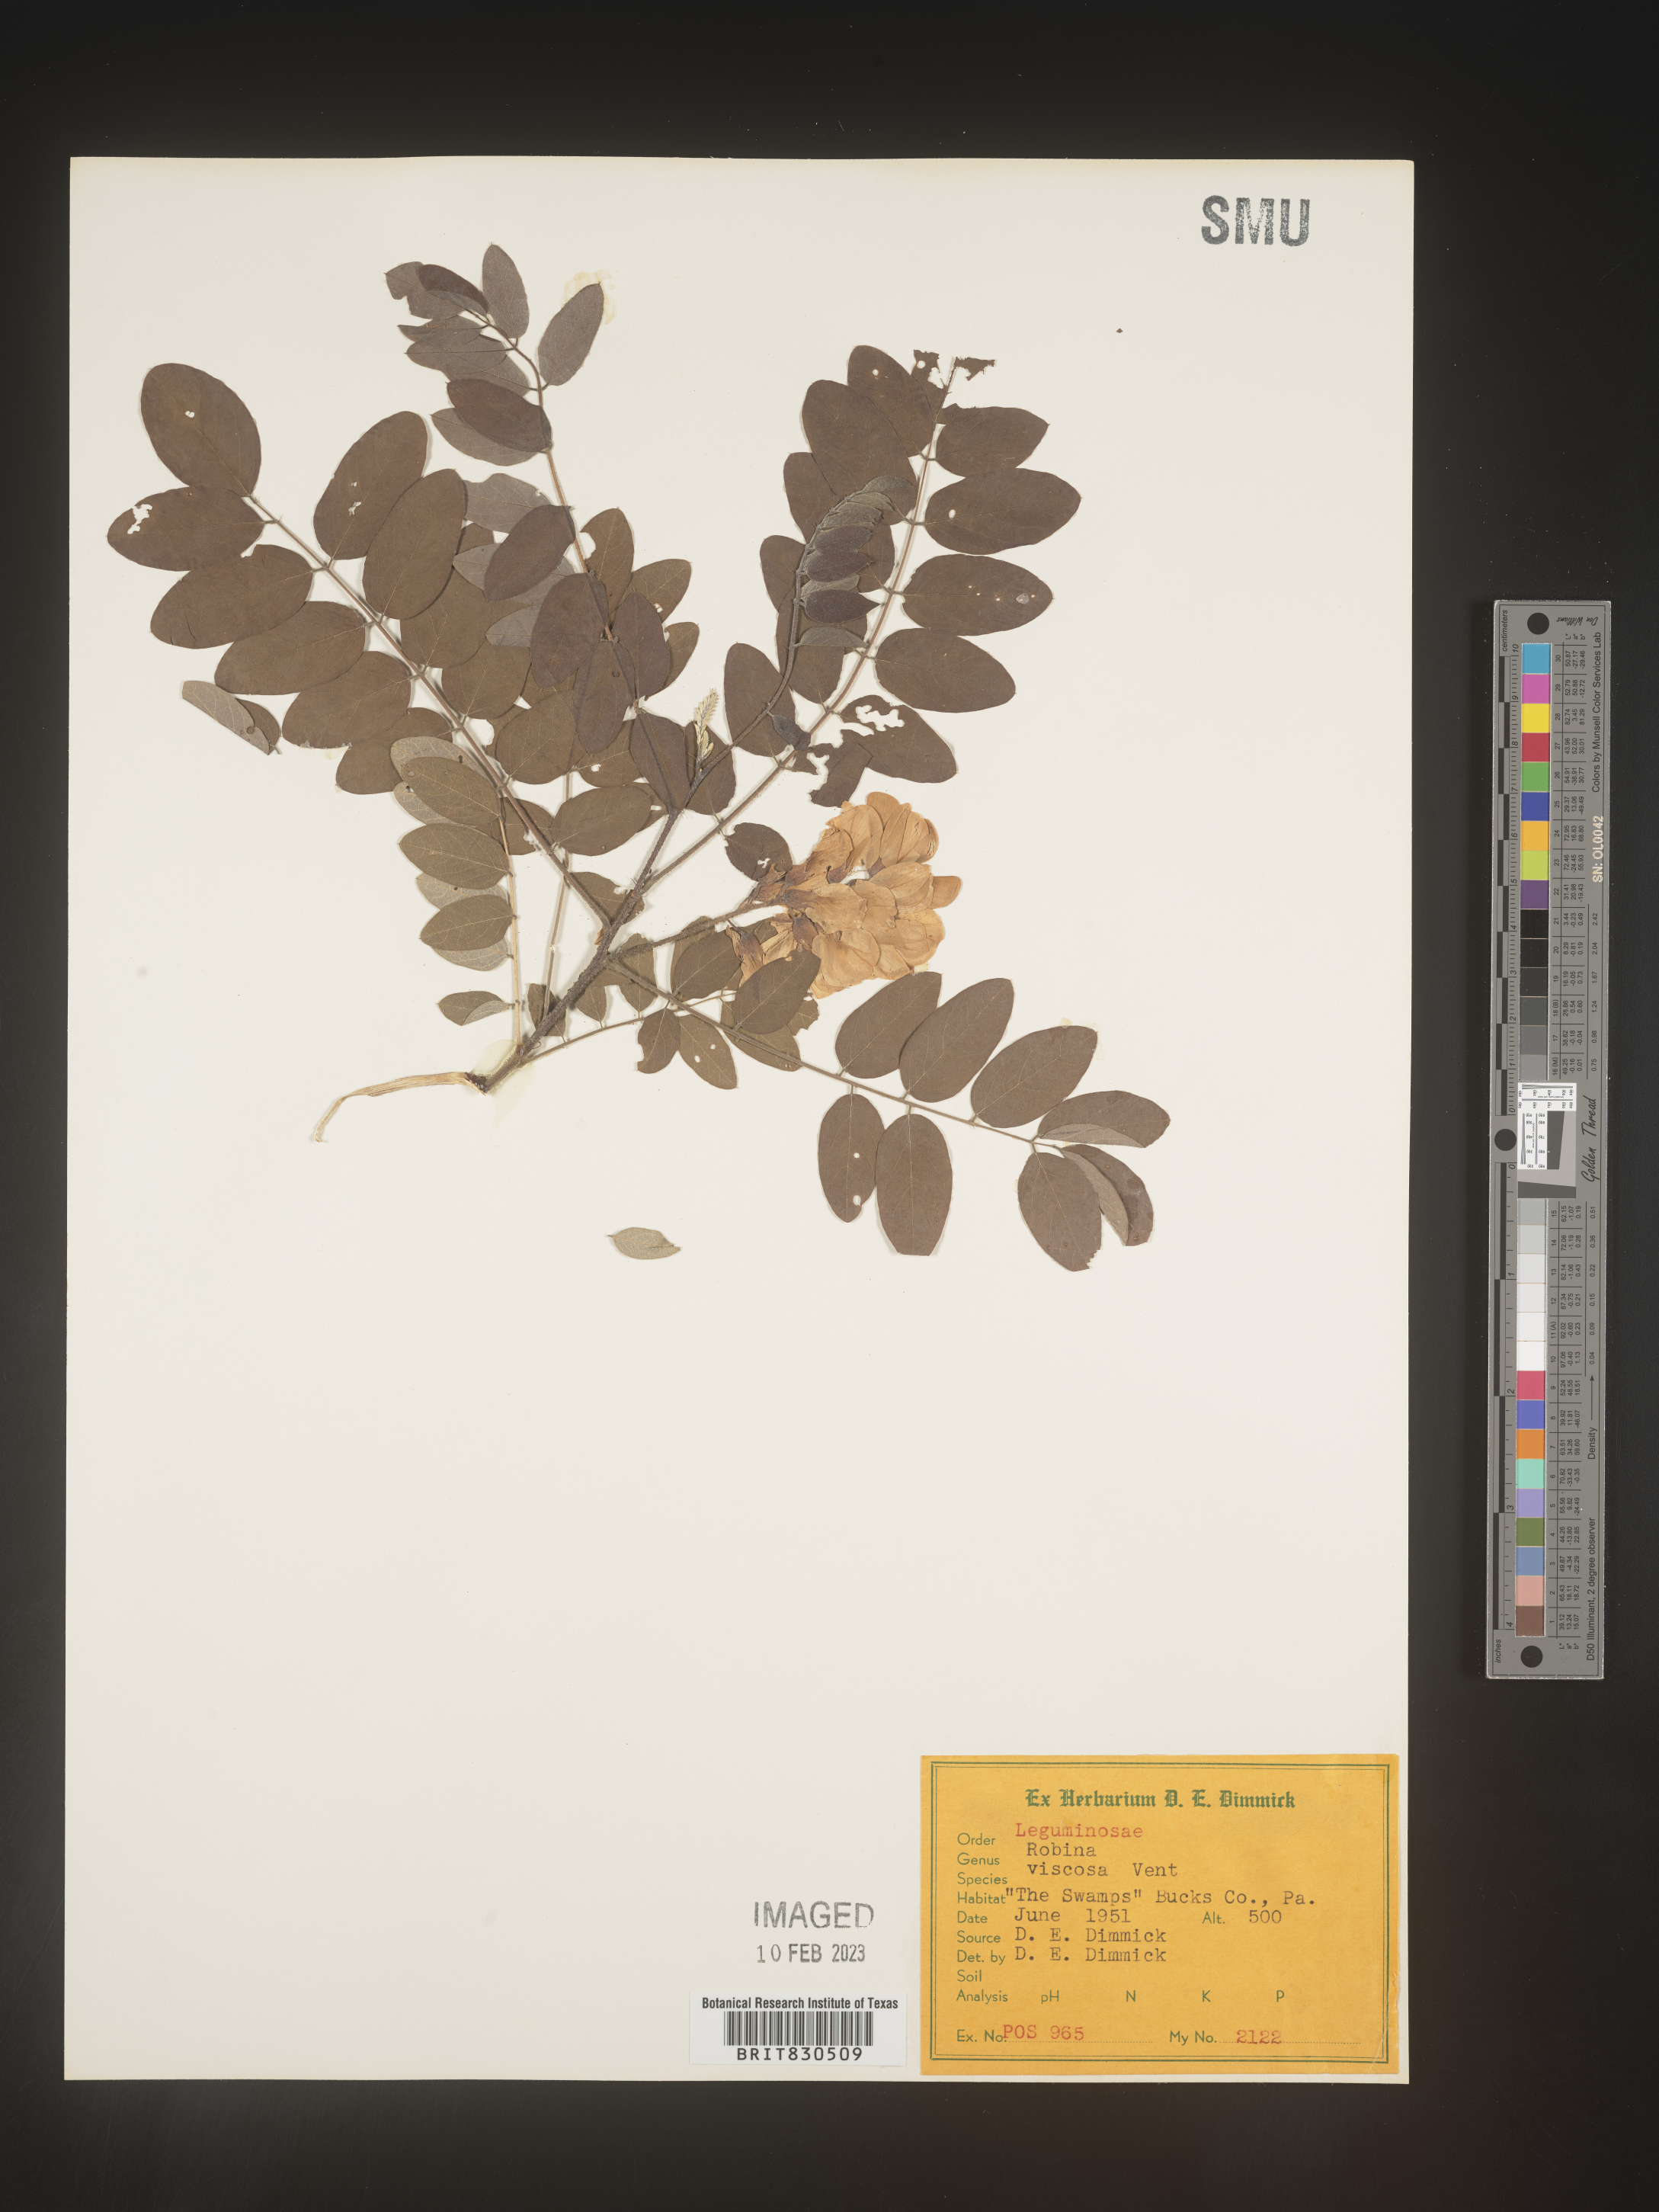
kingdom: Plantae
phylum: Tracheophyta
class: Magnoliopsida
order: Fabales
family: Fabaceae
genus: Robinia
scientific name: Robinia
